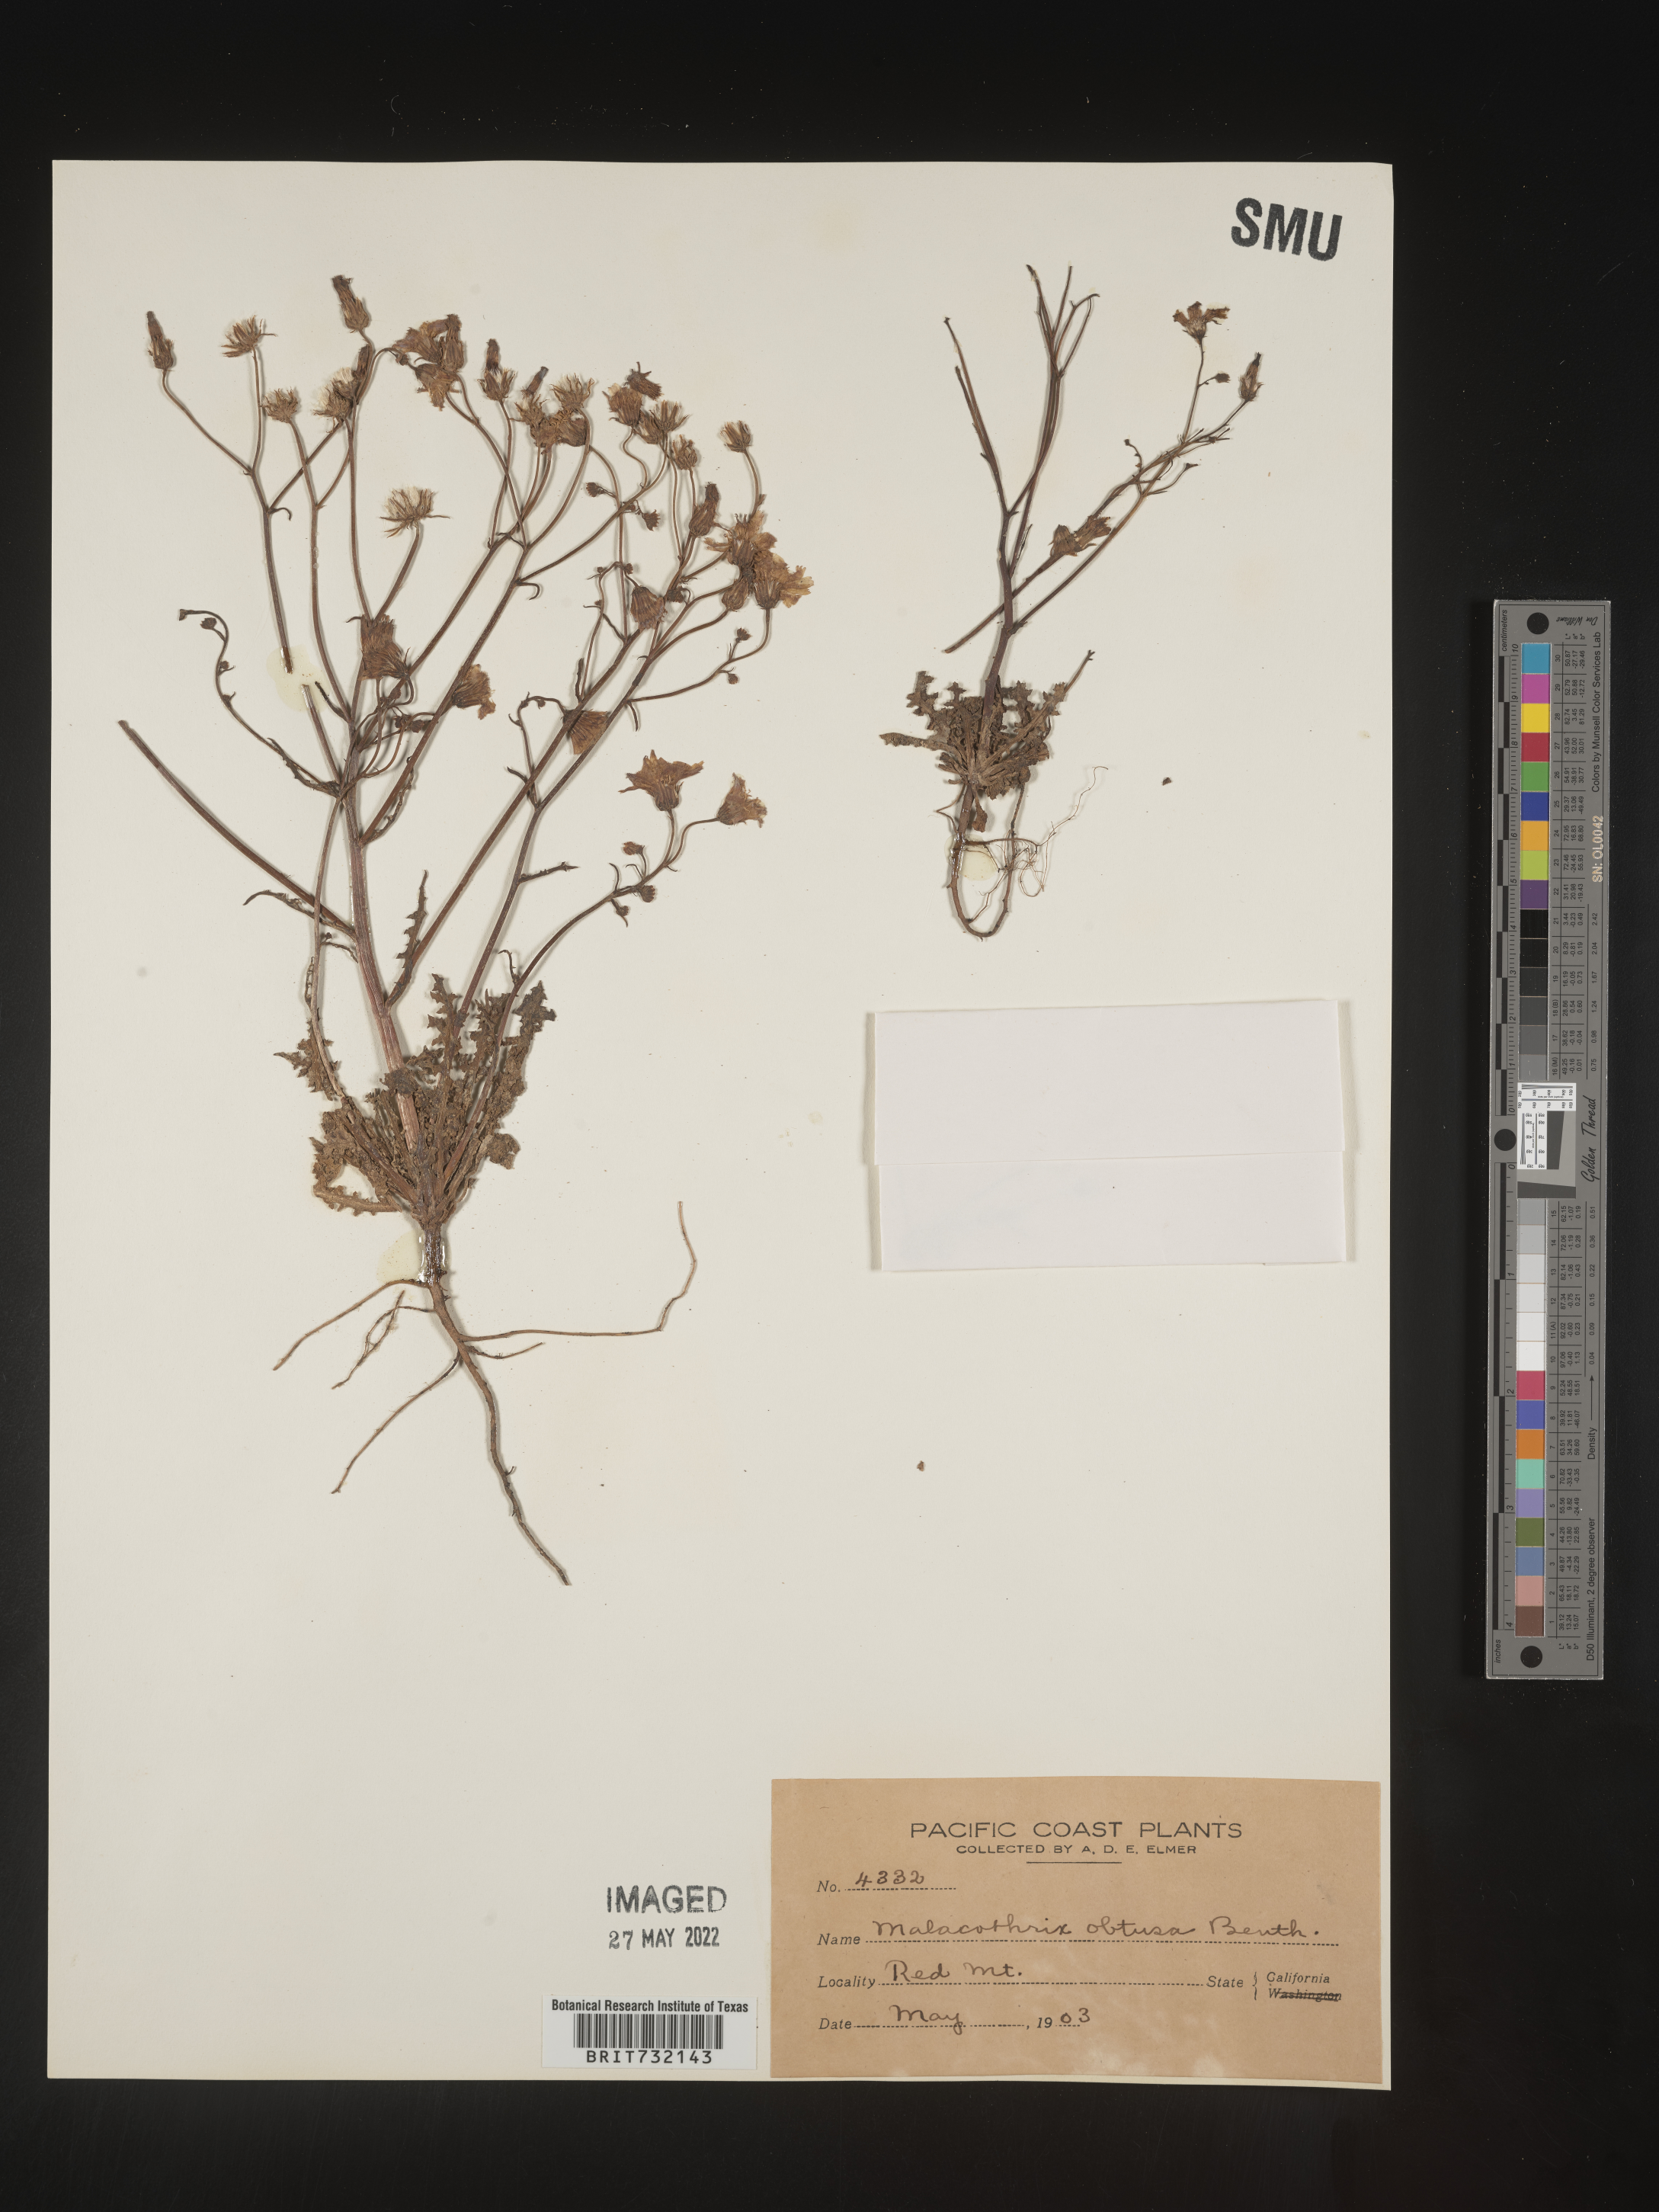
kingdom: Plantae
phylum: Tracheophyta
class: Magnoliopsida
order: Asterales
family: Asteraceae
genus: Malacothrix
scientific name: Malacothrix floccifera
